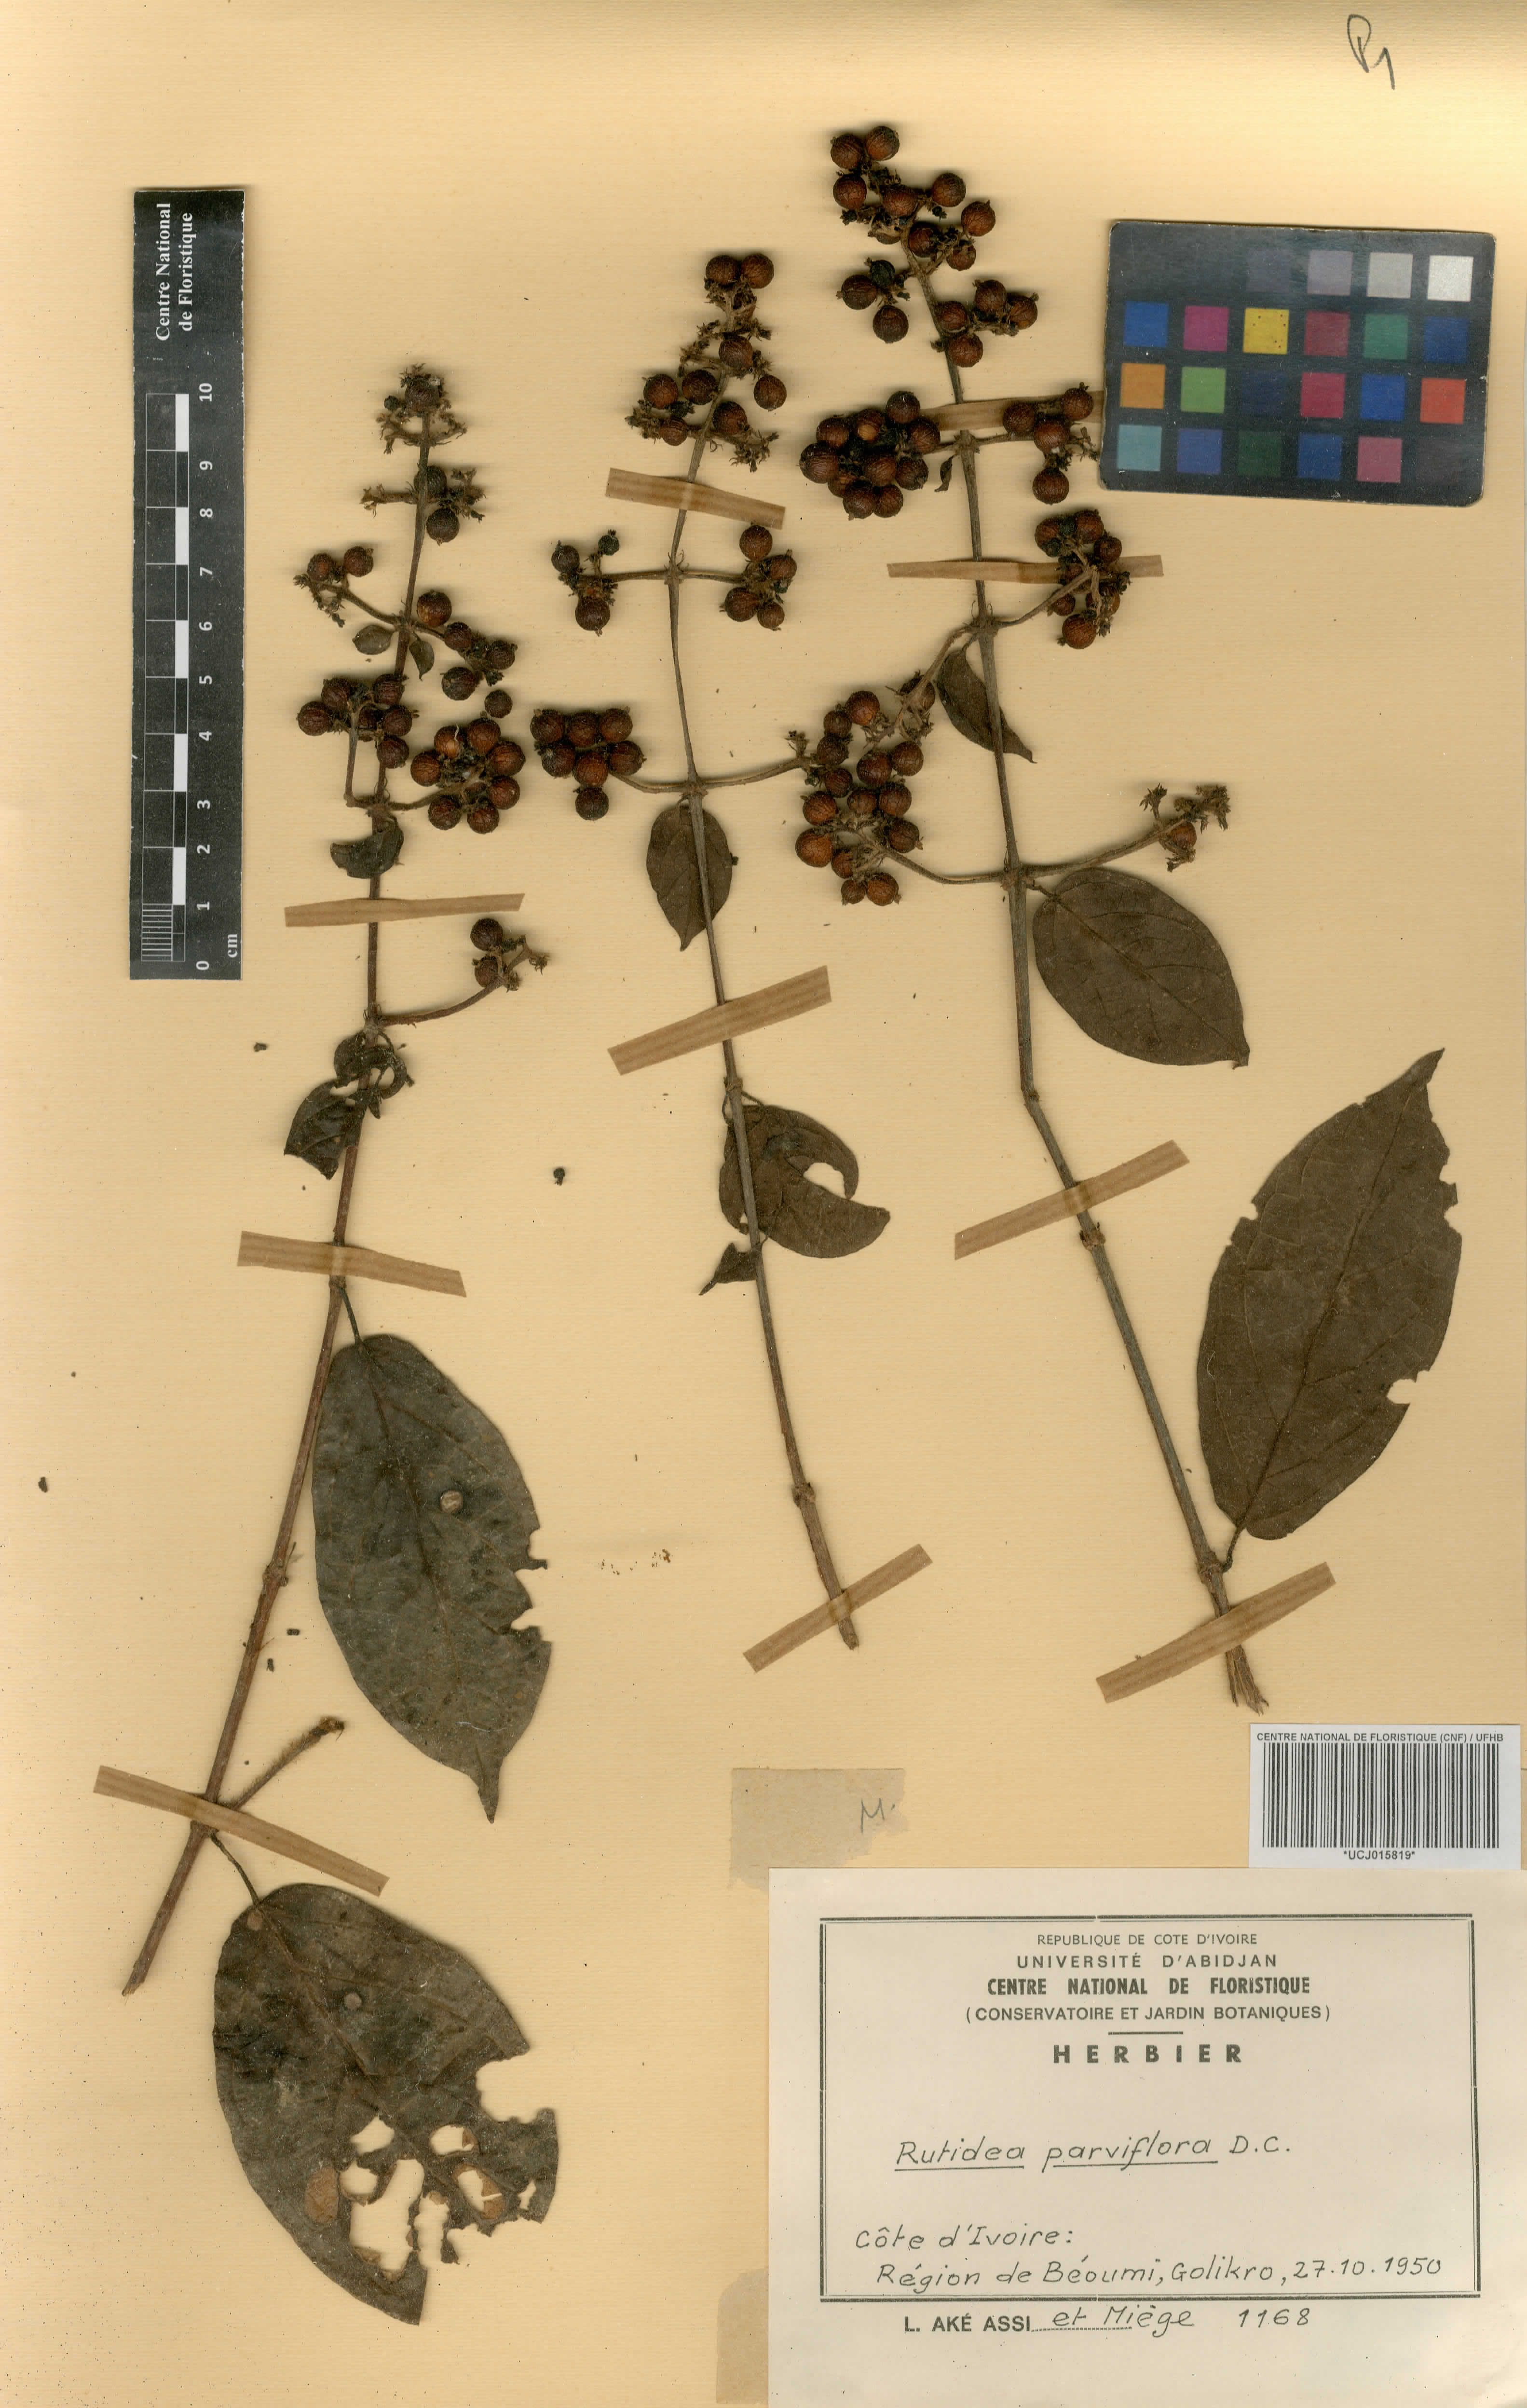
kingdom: Plantae
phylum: Tracheophyta
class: Magnoliopsida
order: Gentianales
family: Rubiaceae
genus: Rutidea
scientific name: Rutidea parviflora
